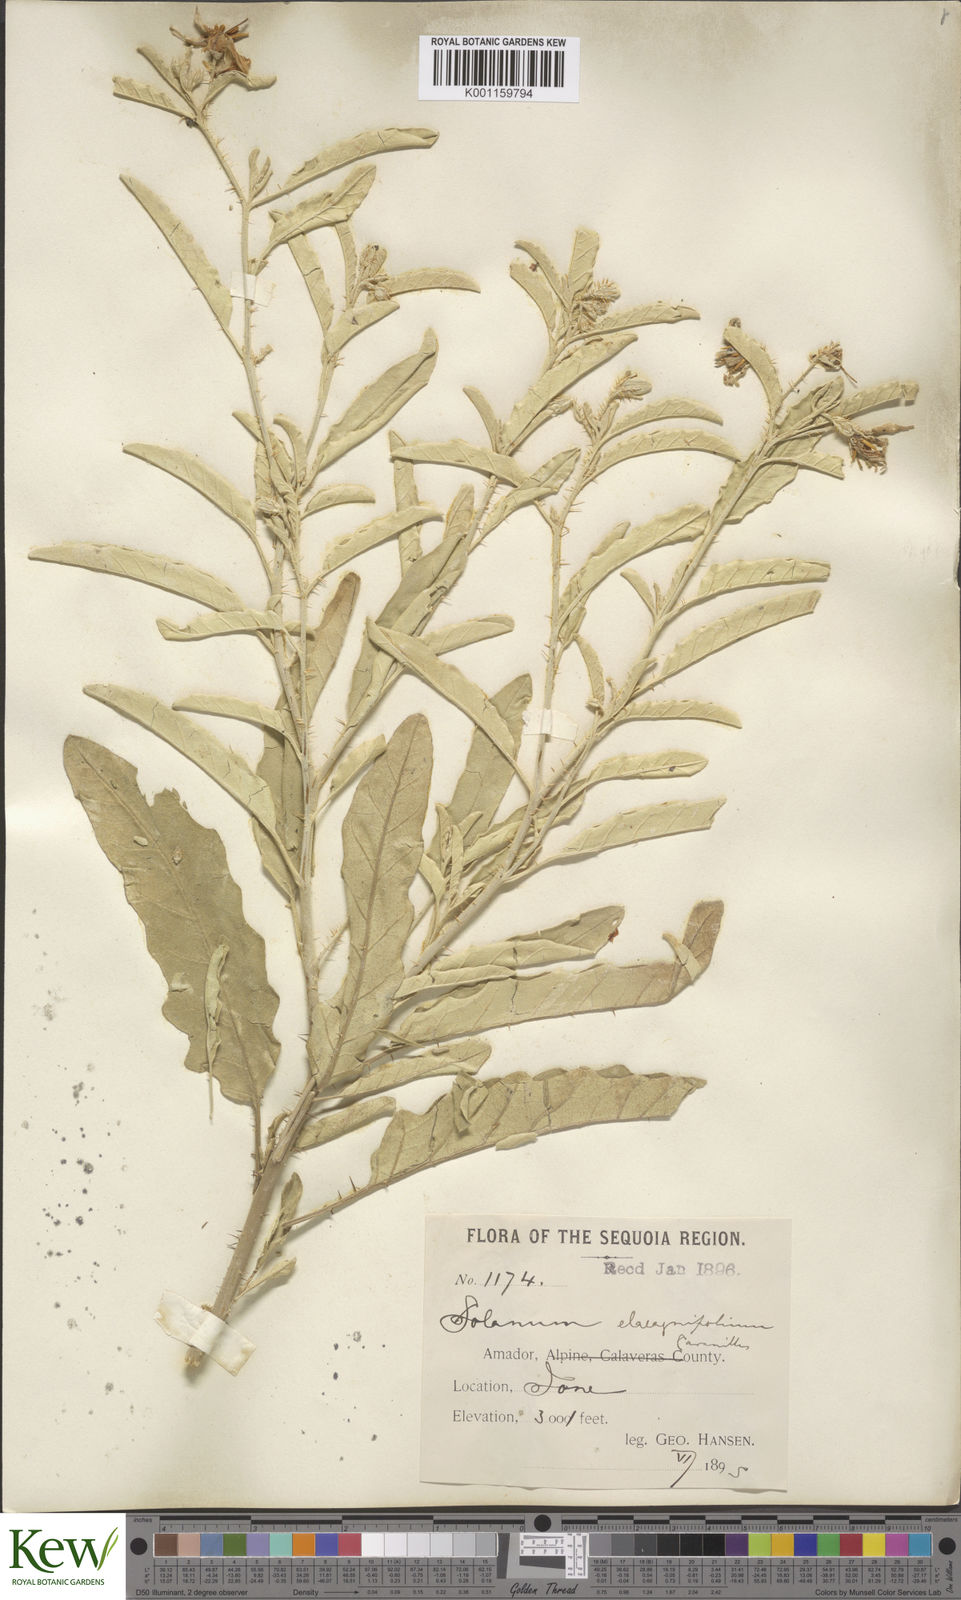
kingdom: Plantae
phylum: Tracheophyta
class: Magnoliopsida
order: Solanales
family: Solanaceae
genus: Solanum
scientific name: Solanum
